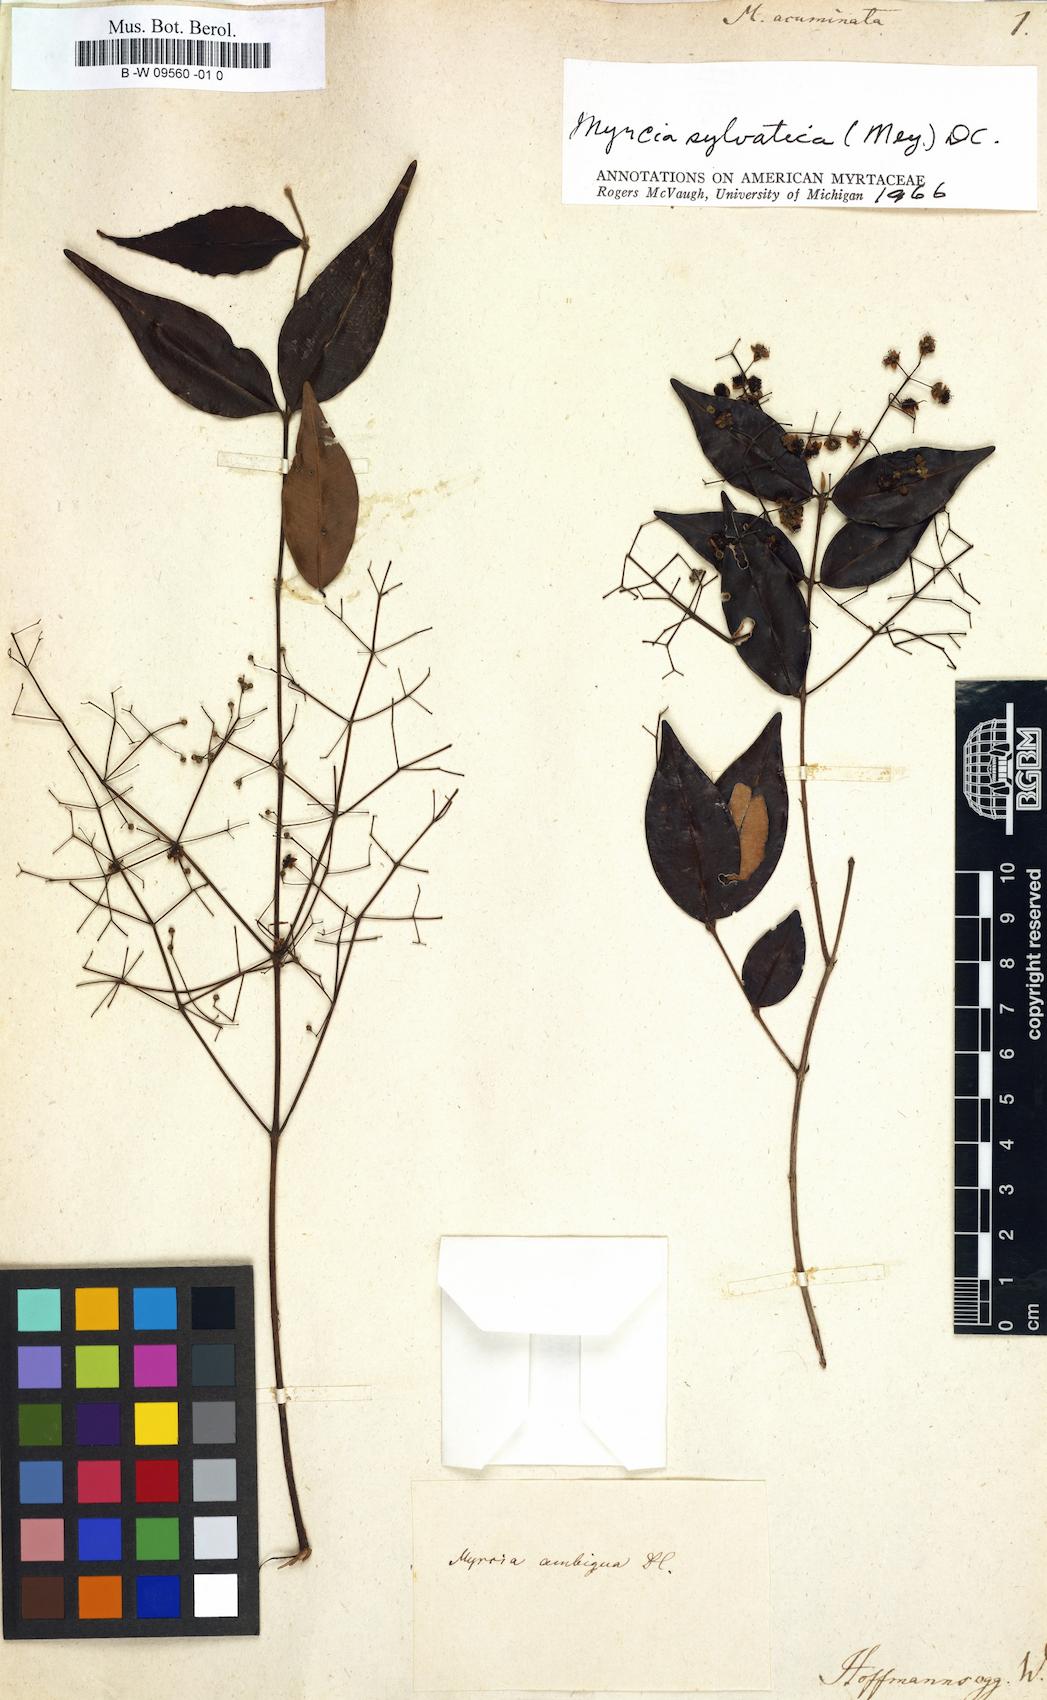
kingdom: Plantae
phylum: Tracheophyta
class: Magnoliopsida
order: Myrtales
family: Myrtaceae
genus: Myrtus
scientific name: Myrtus acuminata
